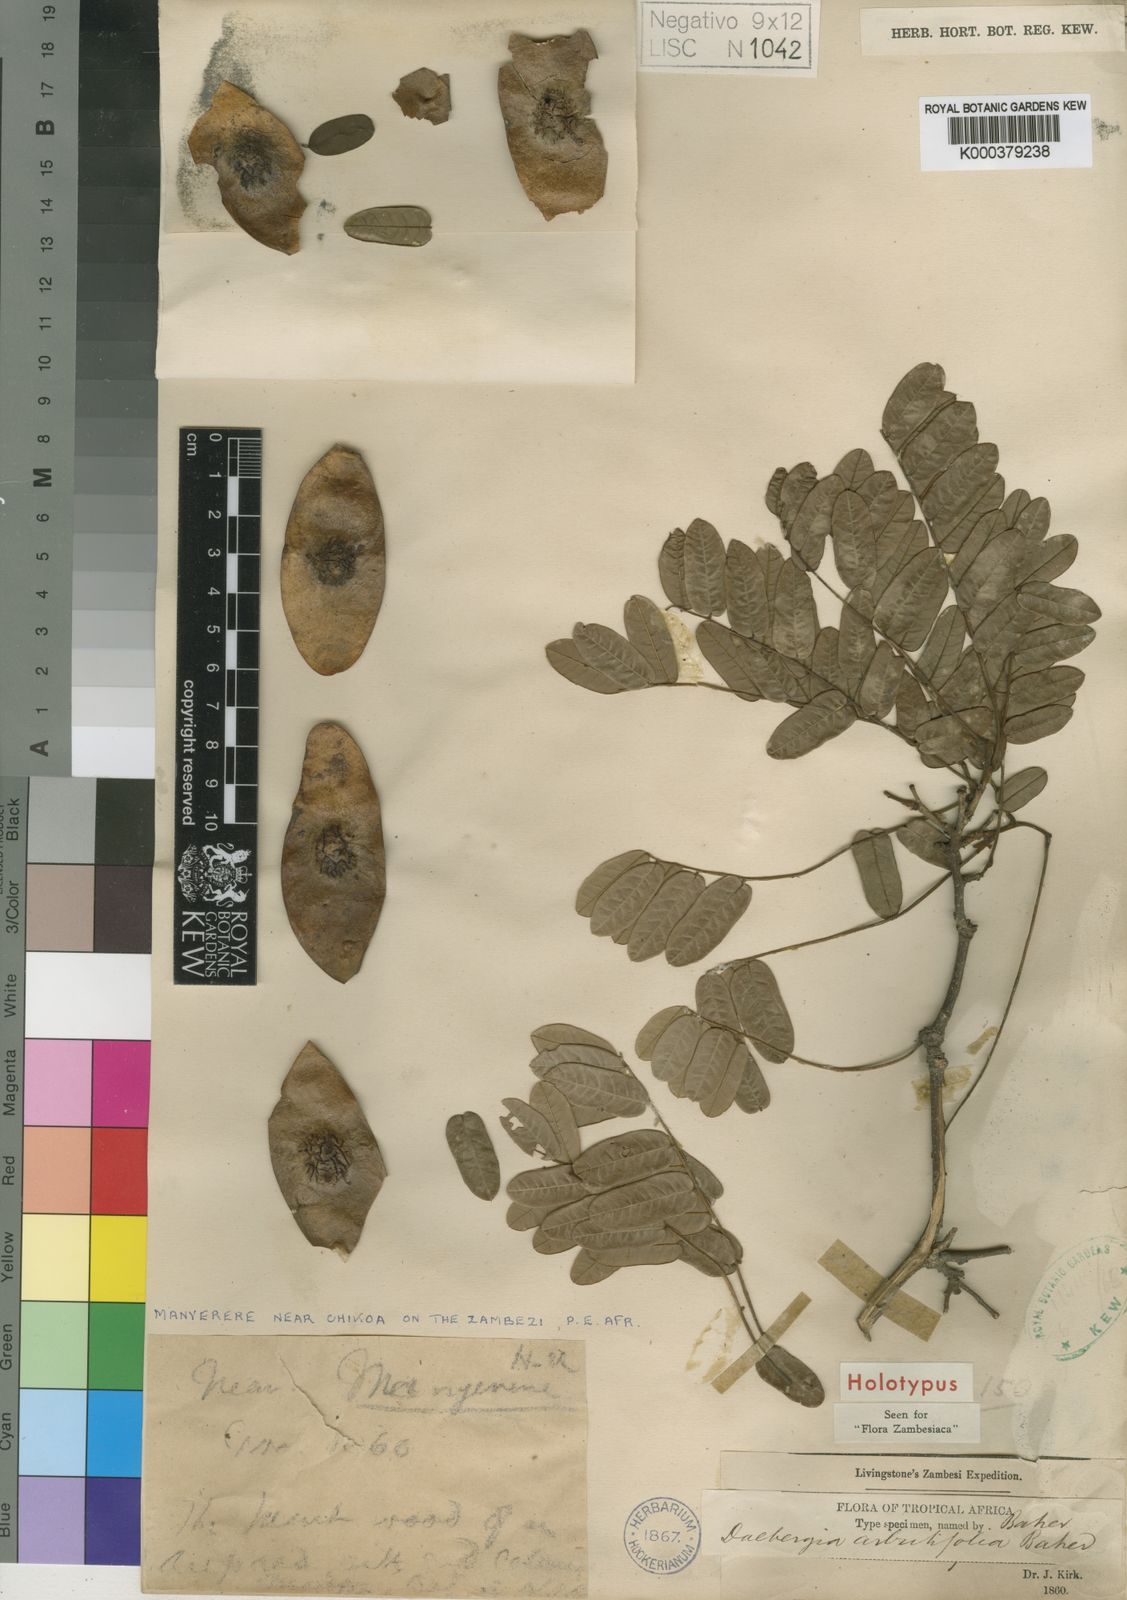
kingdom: Plantae
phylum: Tracheophyta
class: Magnoliopsida
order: Fabales
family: Fabaceae
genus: Dalbergia
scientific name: Dalbergia arbutifolia
